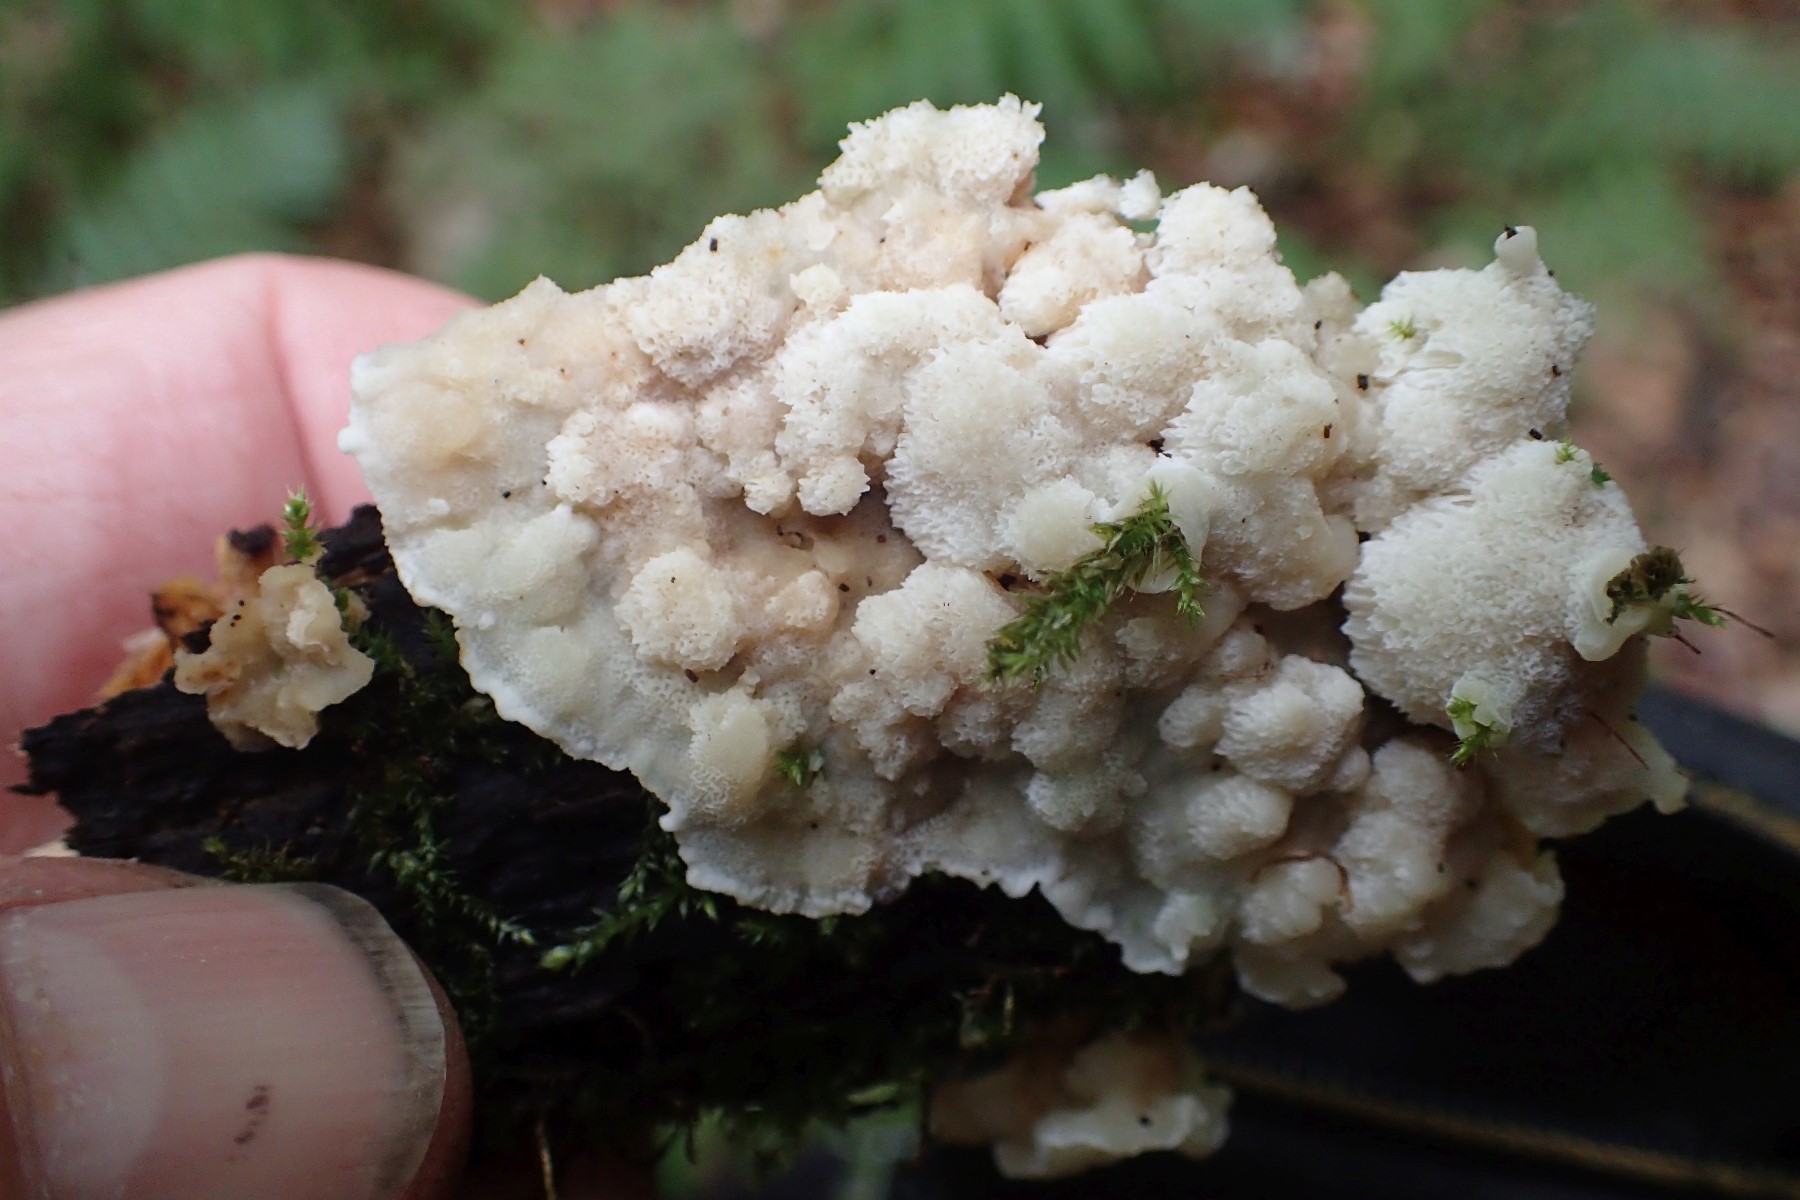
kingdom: Fungi
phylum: Basidiomycota
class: Agaricomycetes
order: Polyporales
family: Meruliaceae
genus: Physisporinus
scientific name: Physisporinus
